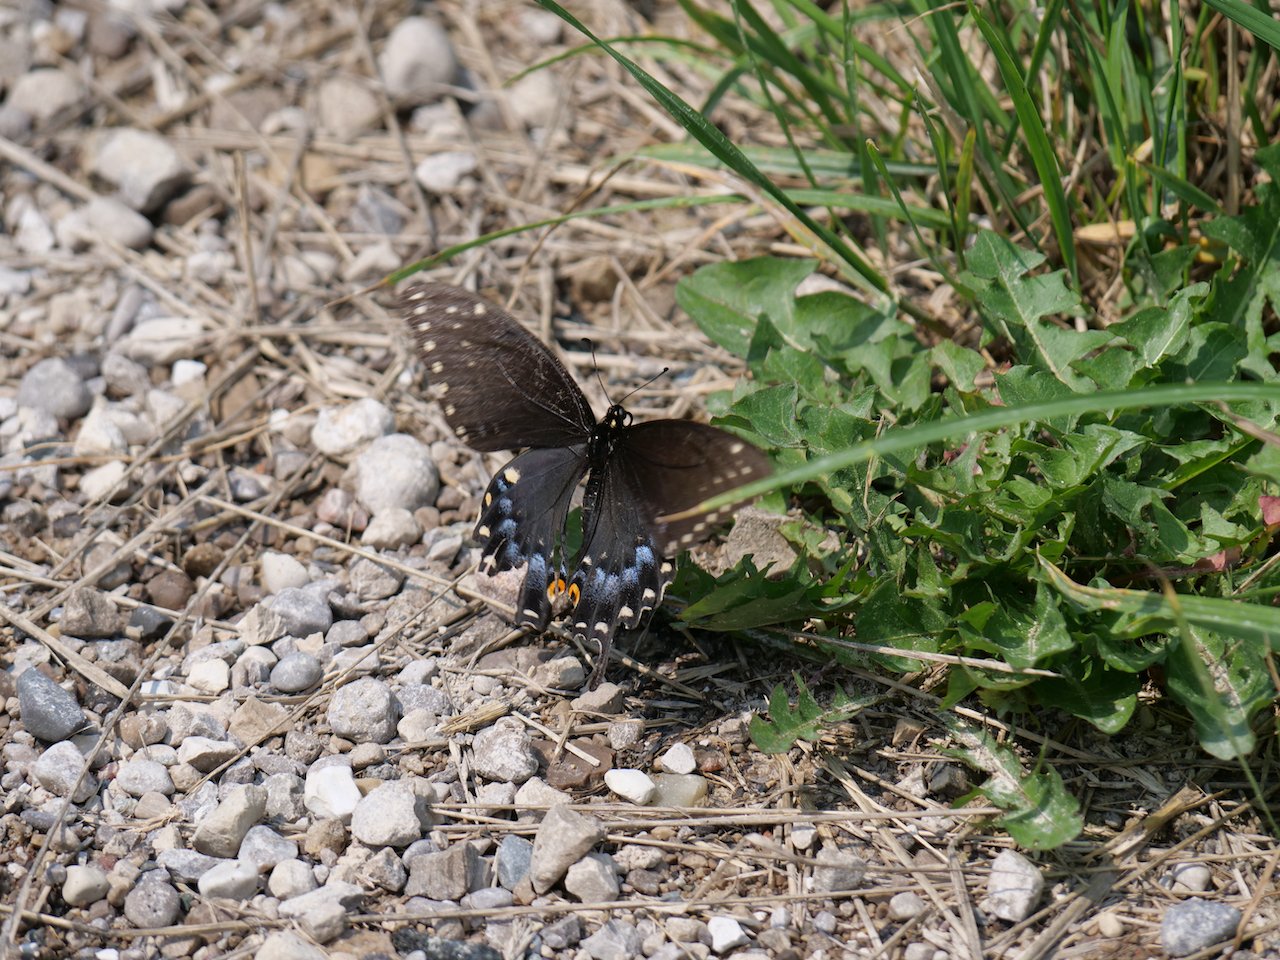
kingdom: Animalia
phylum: Arthropoda
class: Insecta
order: Lepidoptera
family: Papilionidae
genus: Papilio
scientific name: Papilio polyxenes
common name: Black Swallowtail
